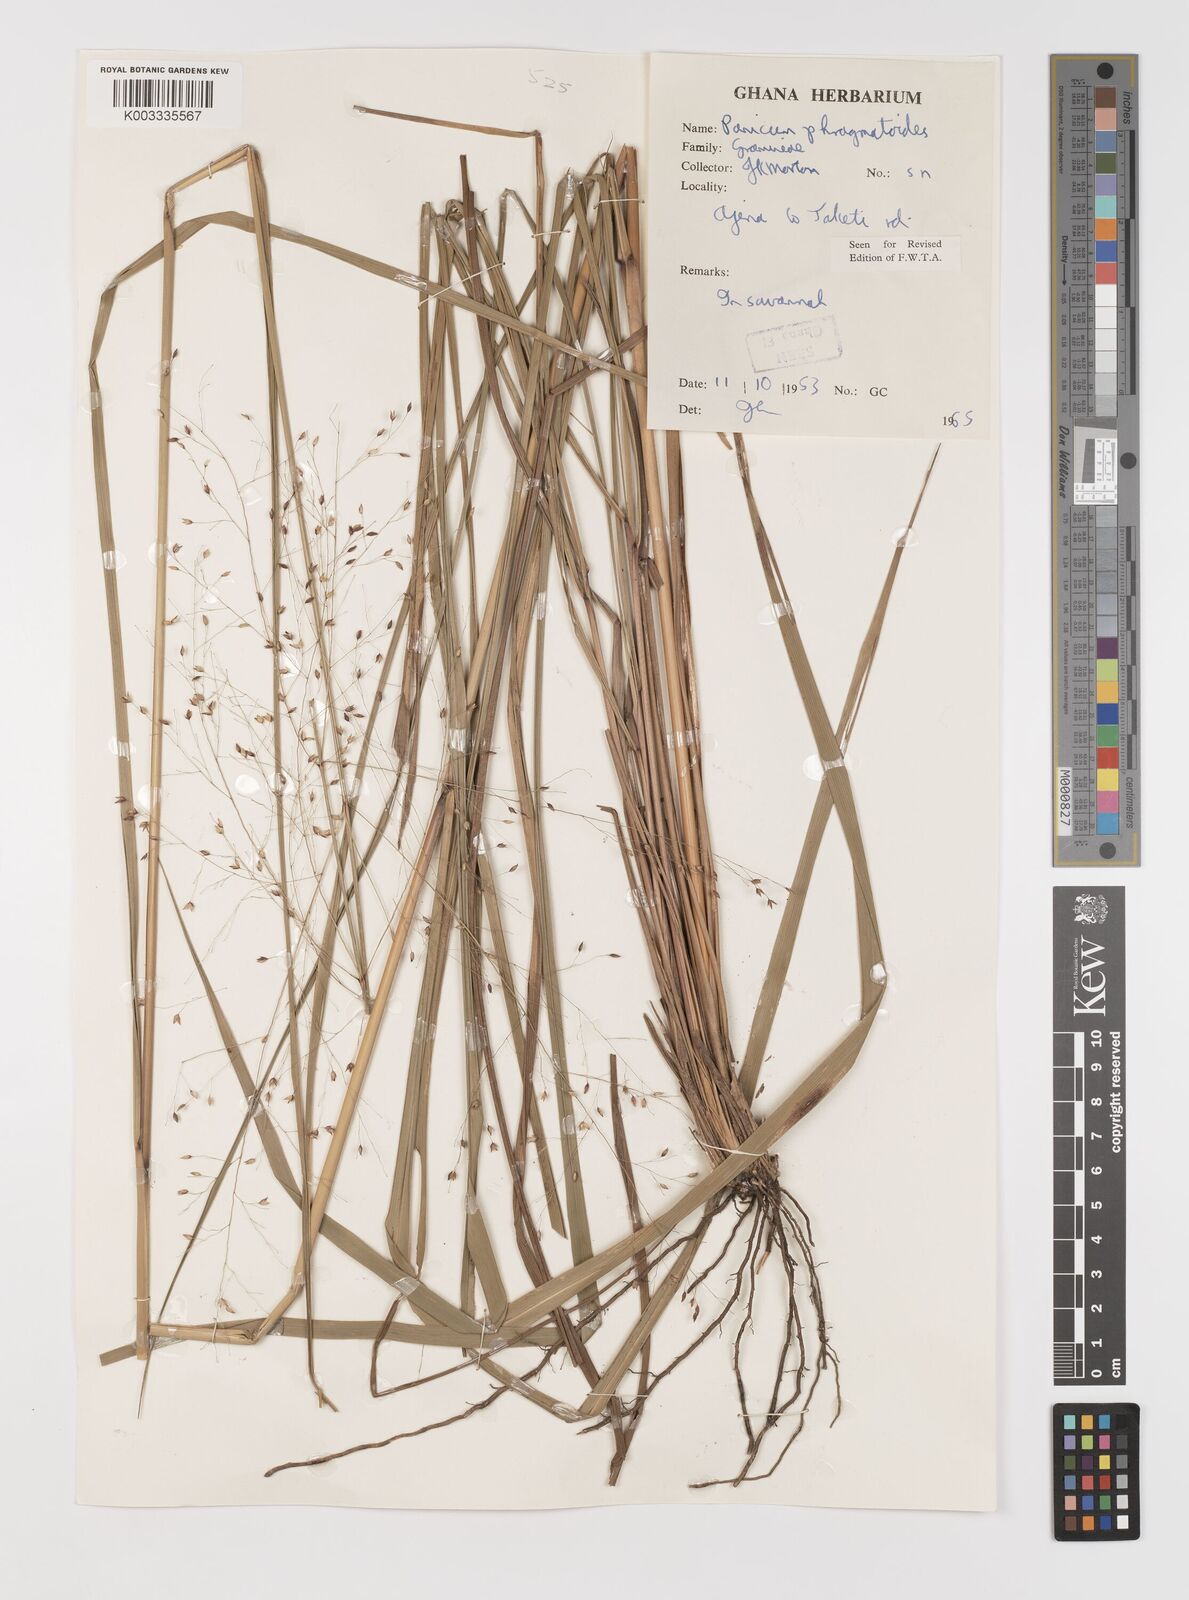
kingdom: Plantae
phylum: Tracheophyta
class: Liliopsida
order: Poales
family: Poaceae
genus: Panicum
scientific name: Panicum phragmitoides
